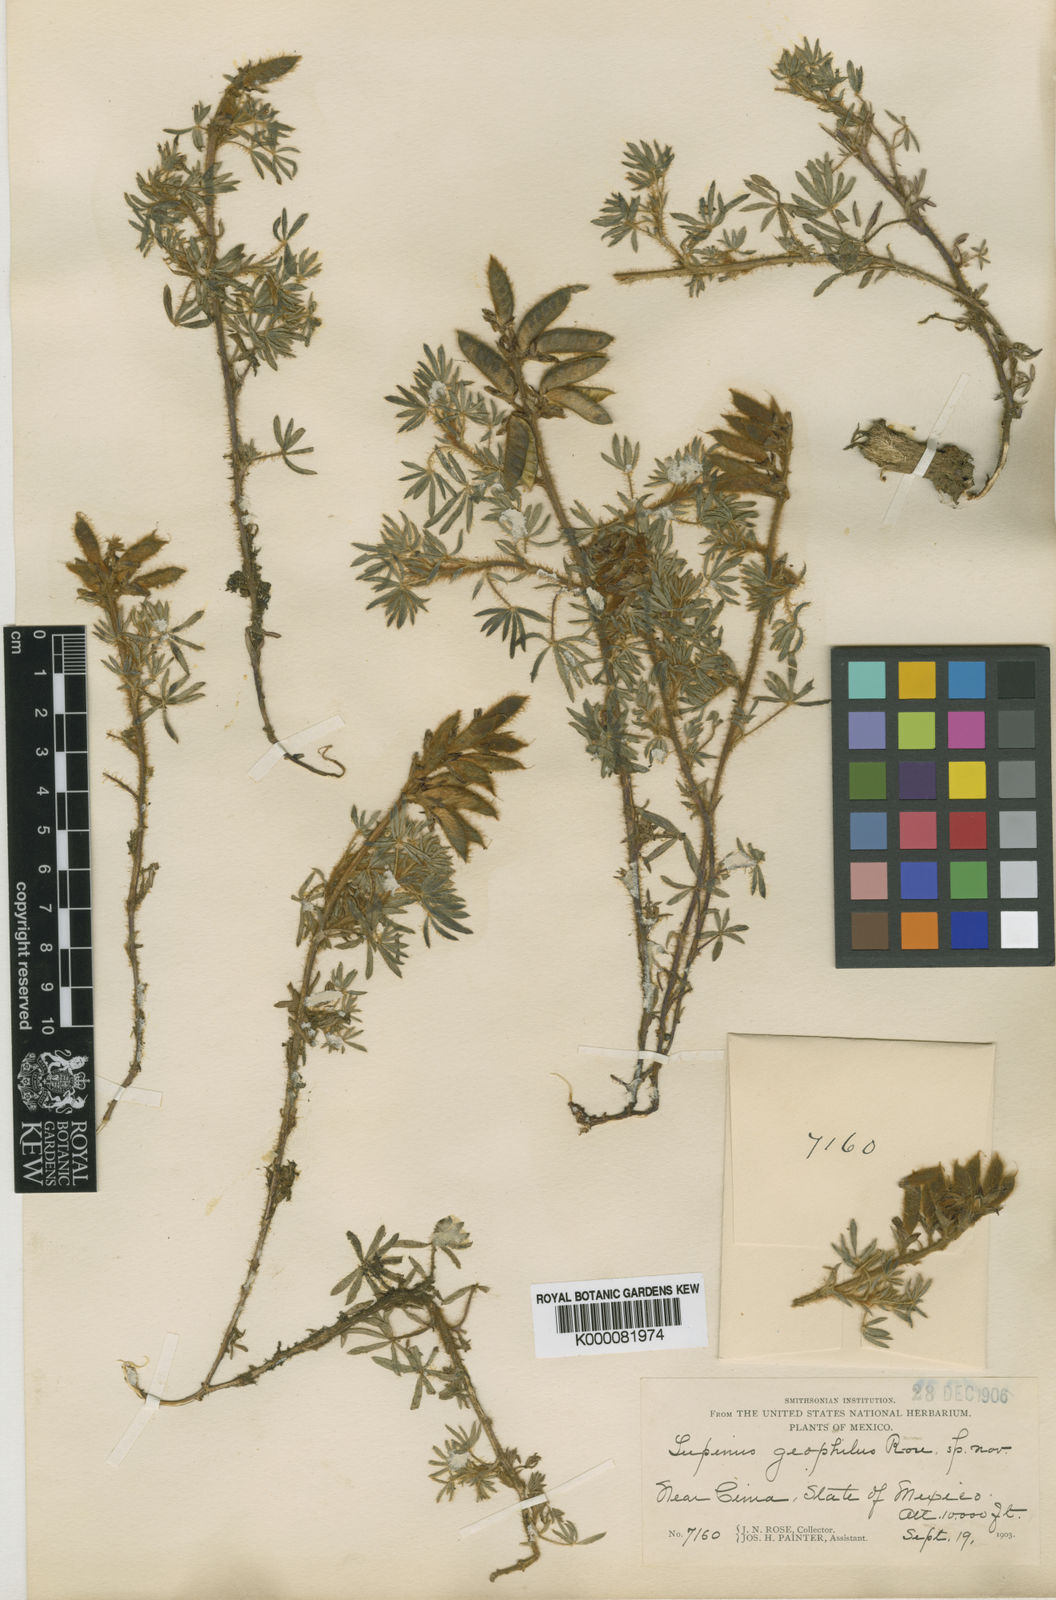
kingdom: Plantae
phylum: Tracheophyta
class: Magnoliopsida
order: Fabales
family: Fabaceae
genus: Lupinus
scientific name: Lupinus humifusus
